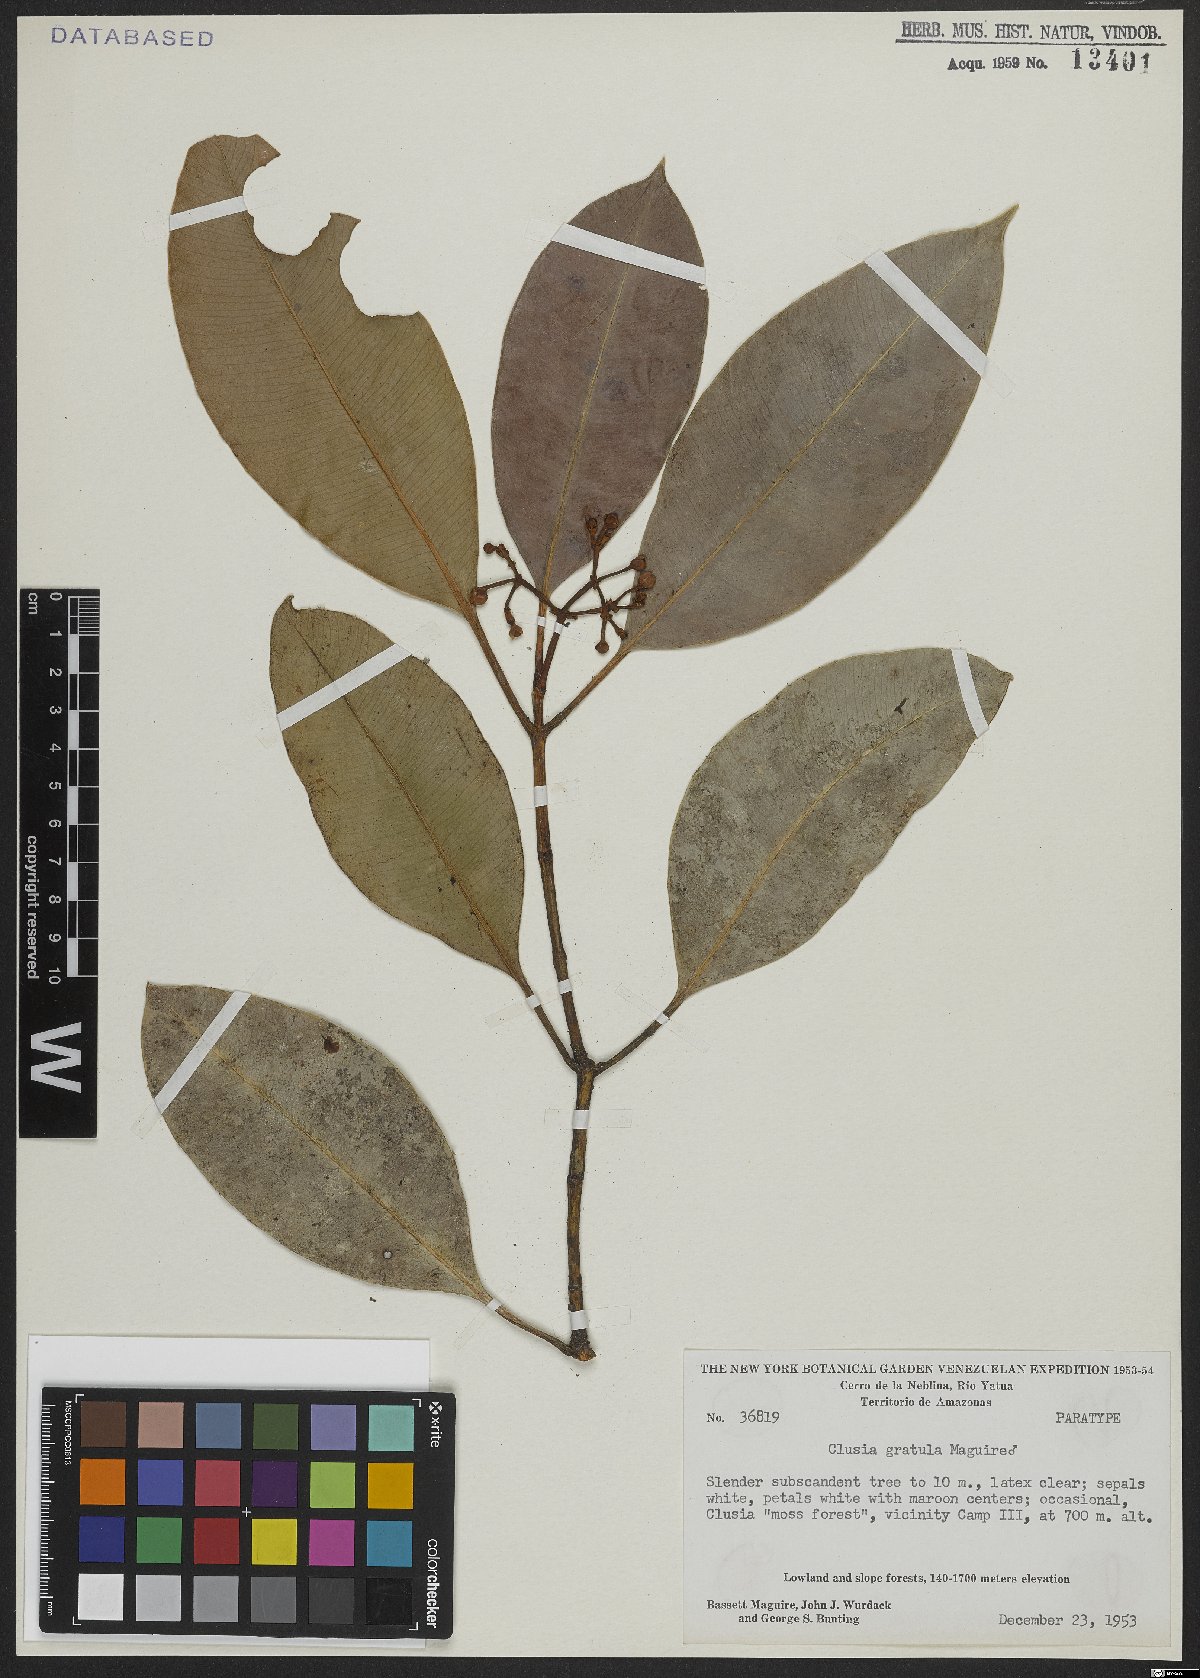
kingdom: Plantae
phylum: Tracheophyta
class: Magnoliopsida
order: Malpighiales
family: Clusiaceae
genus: Clusia
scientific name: Clusia gratula
